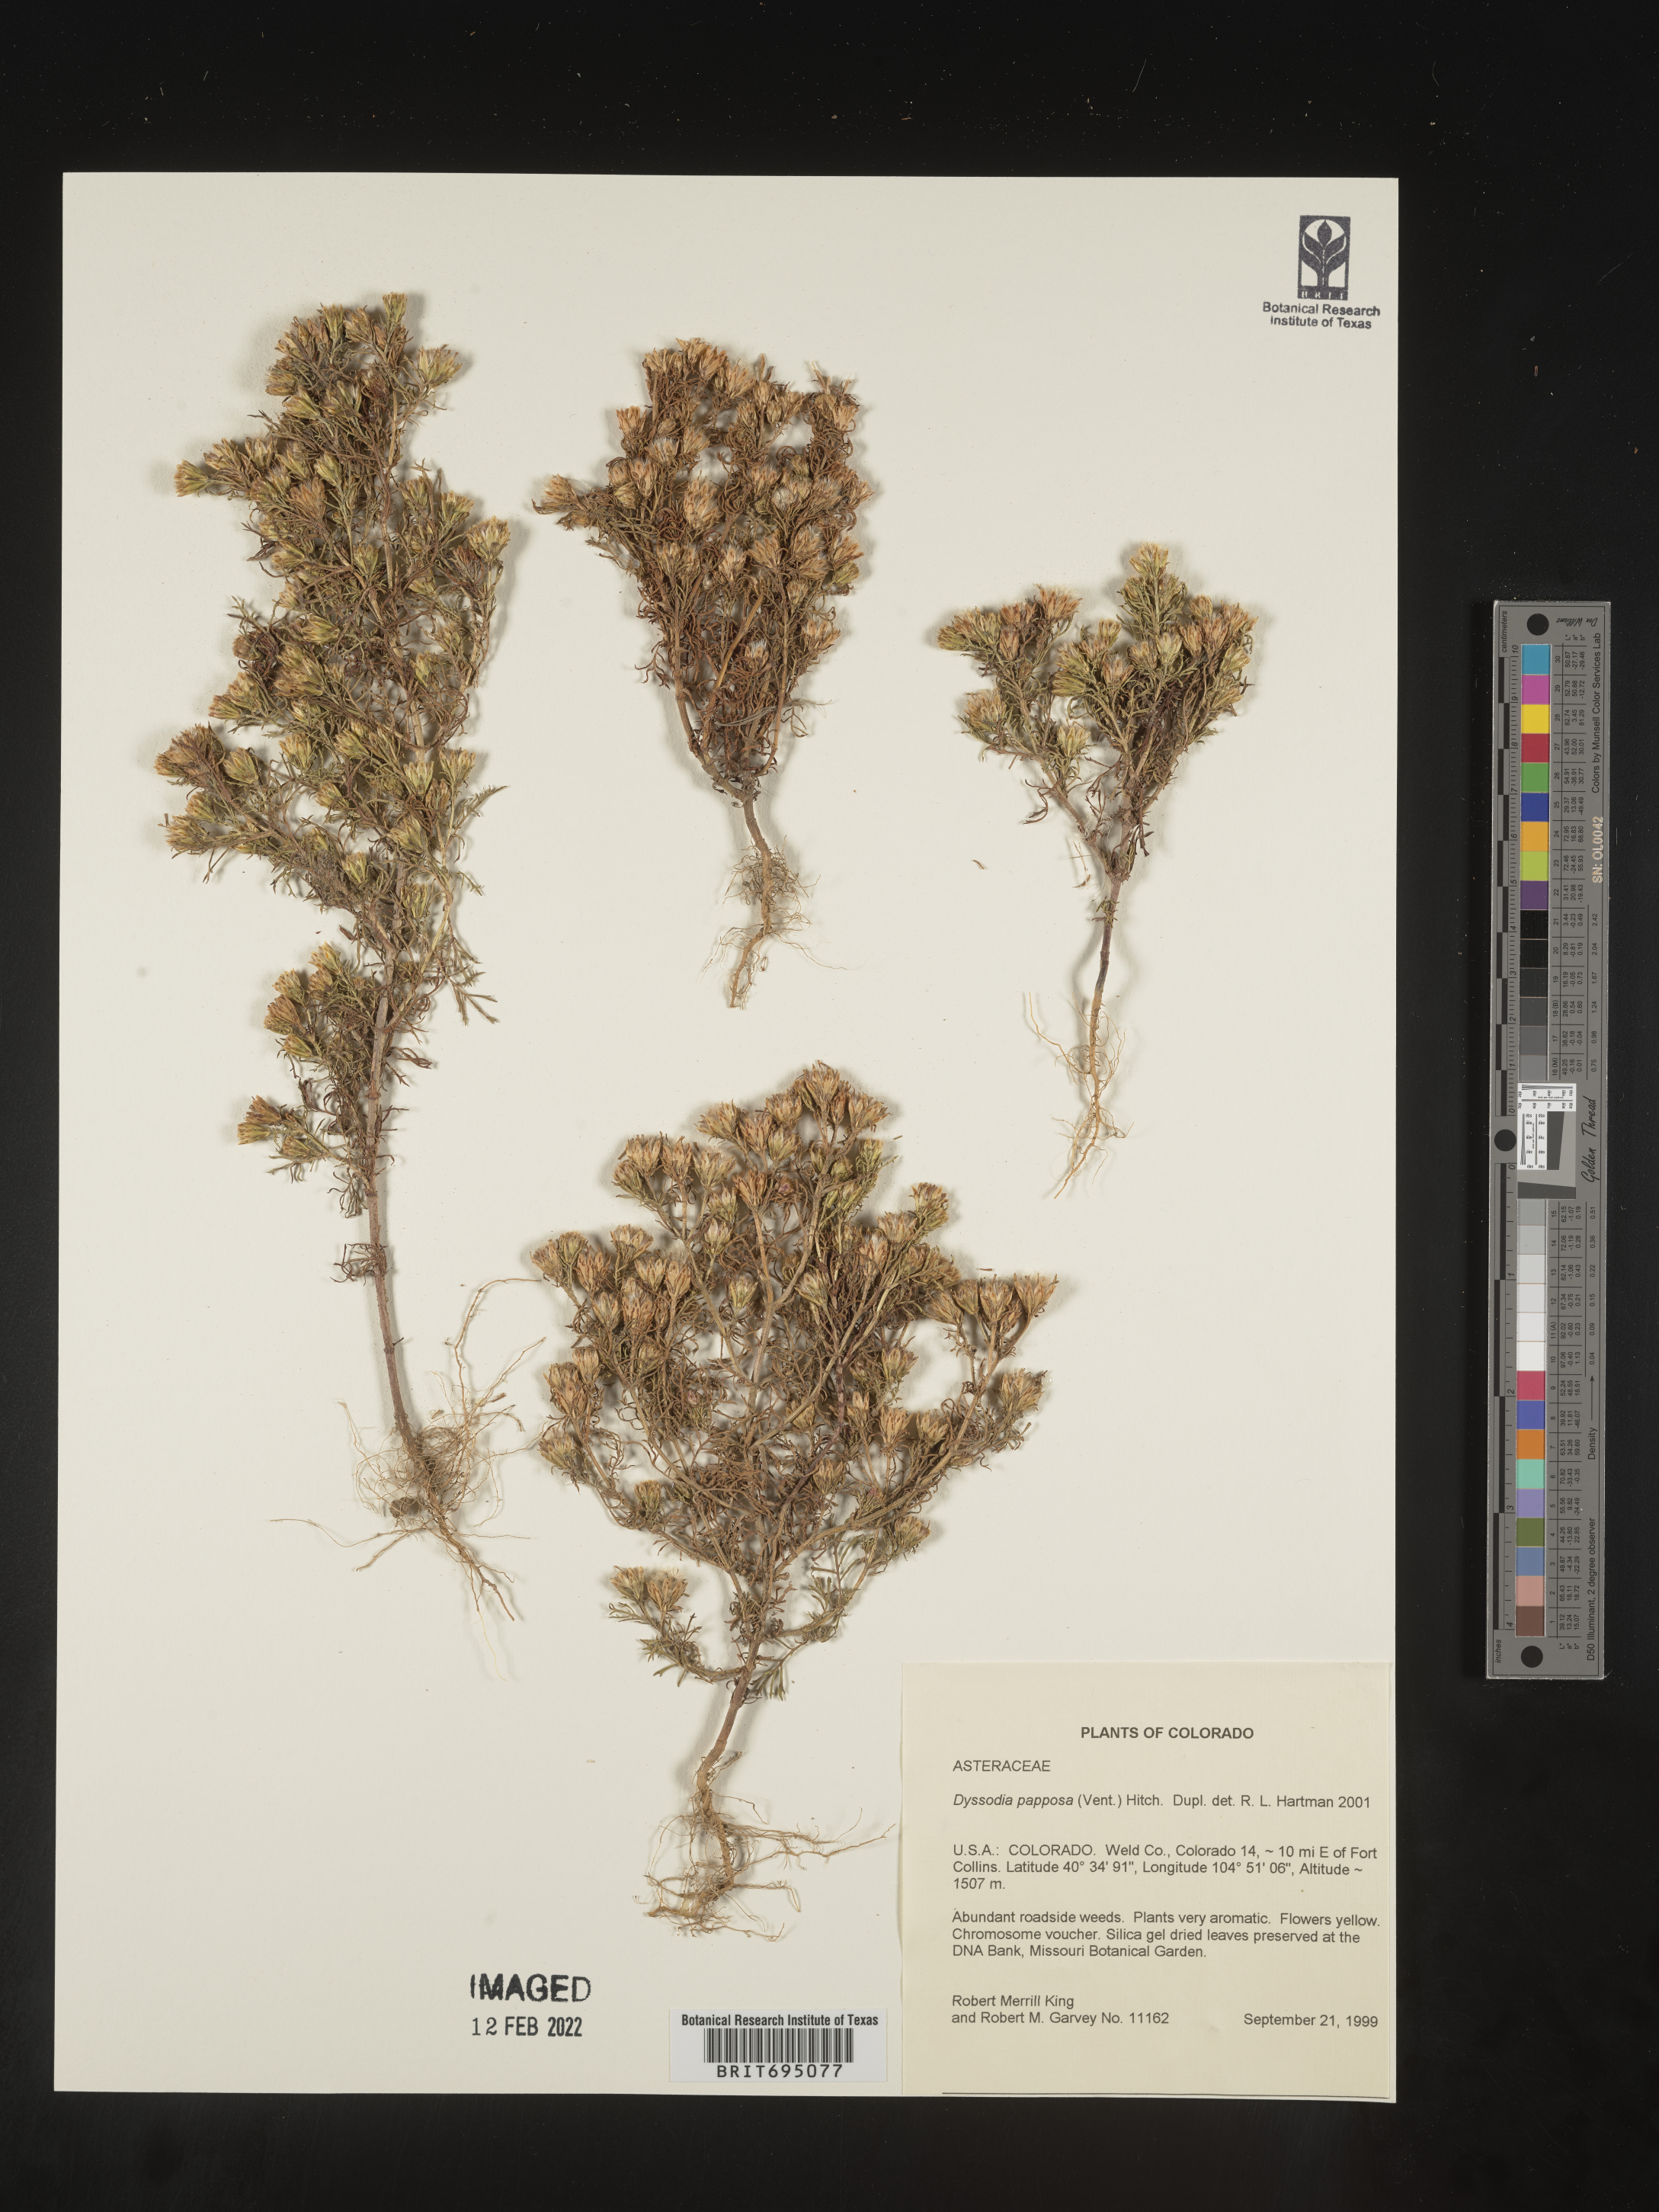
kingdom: Plantae
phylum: Tracheophyta
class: Magnoliopsida
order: Asterales
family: Asteraceae
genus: Dyssodia
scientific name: Dyssodia papposa
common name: Dogweed
